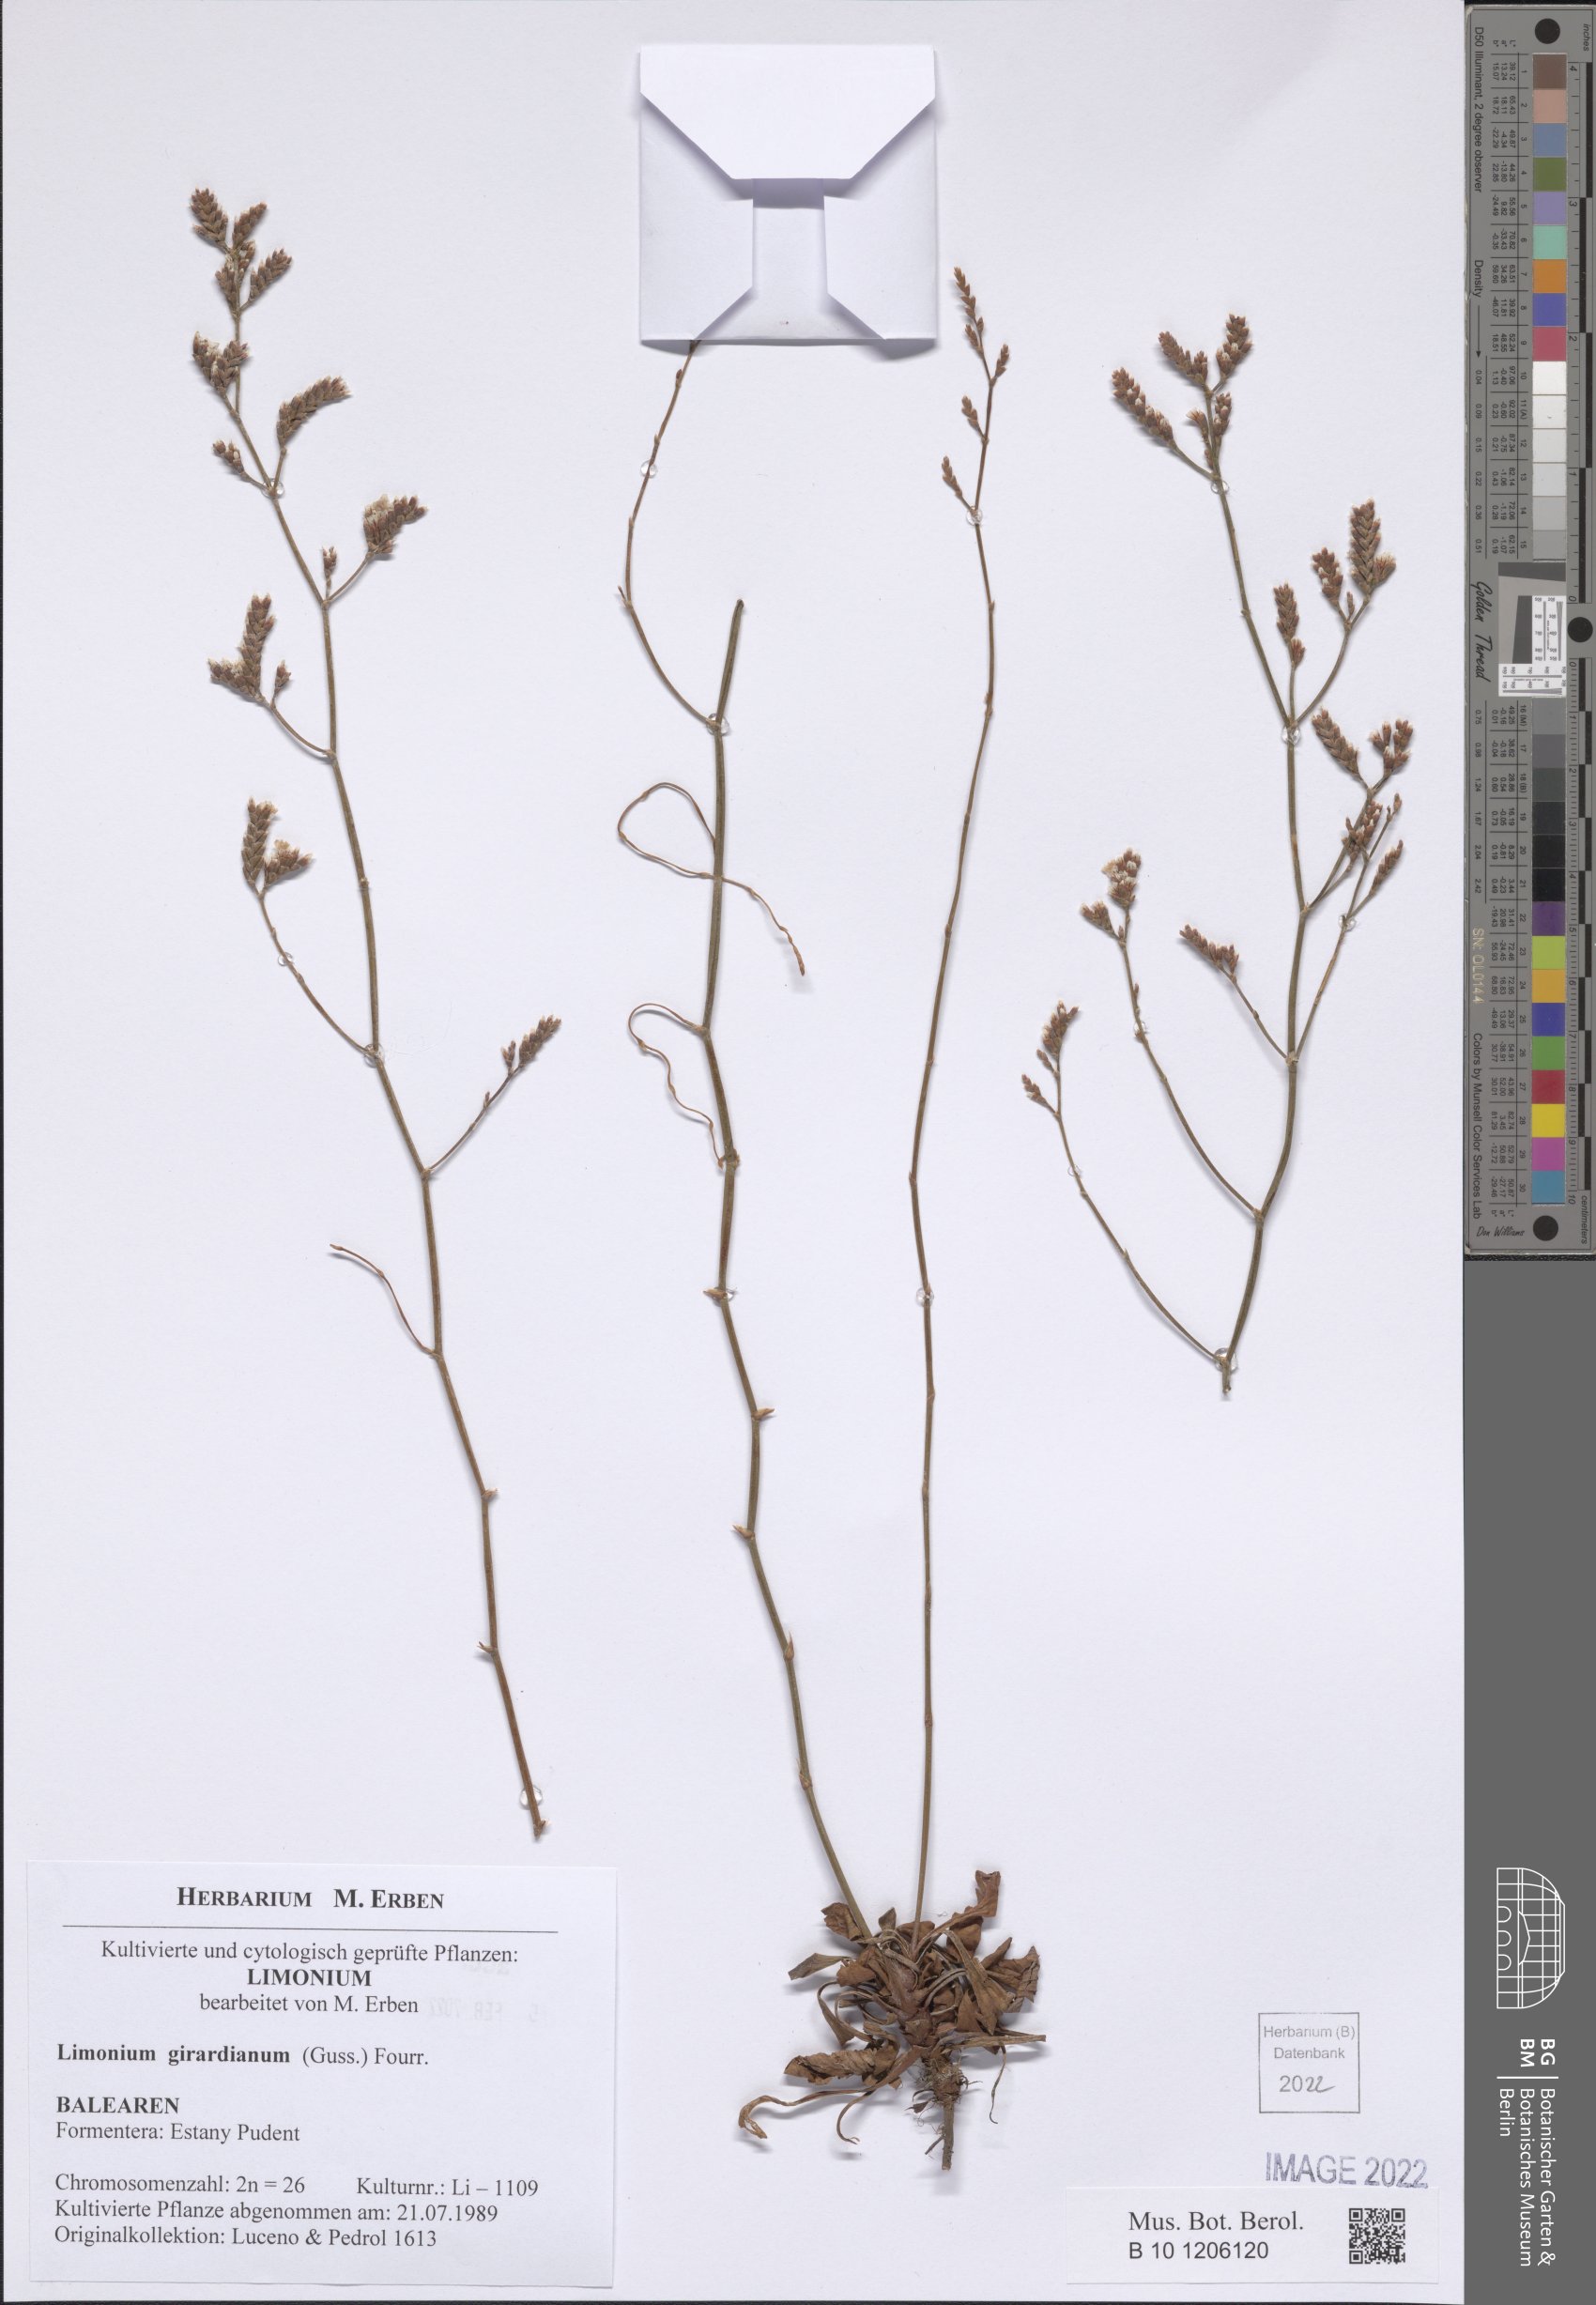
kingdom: Plantae
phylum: Tracheophyta
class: Magnoliopsida
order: Caryophyllales
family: Plumbaginaceae
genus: Limonium
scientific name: Limonium girardianum
